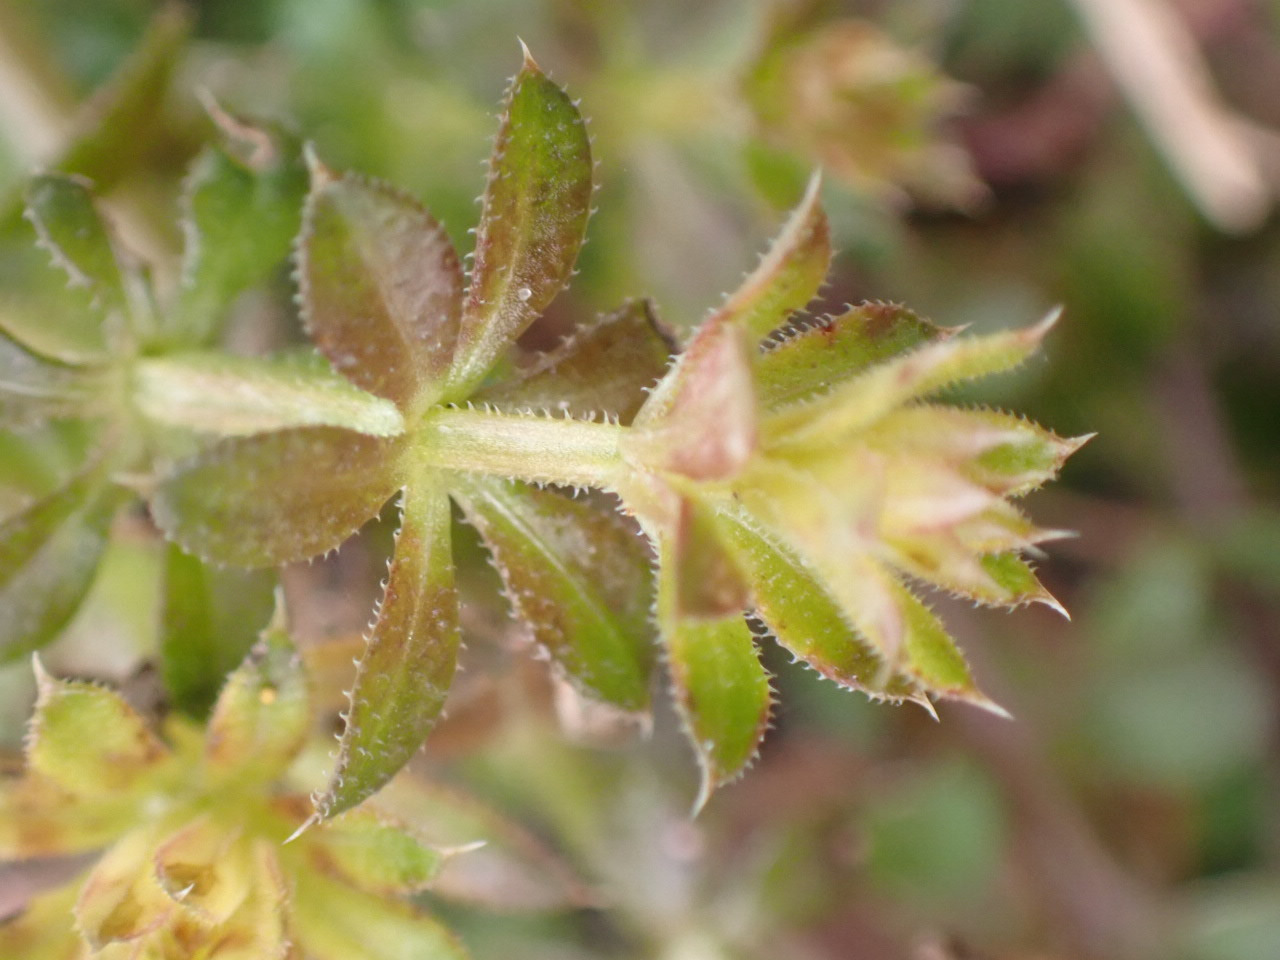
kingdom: Plantae
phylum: Tracheophyta
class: Magnoliopsida
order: Gentianales
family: Rubiaceae
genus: Galium
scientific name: Galium aparine
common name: Burre-snerre
